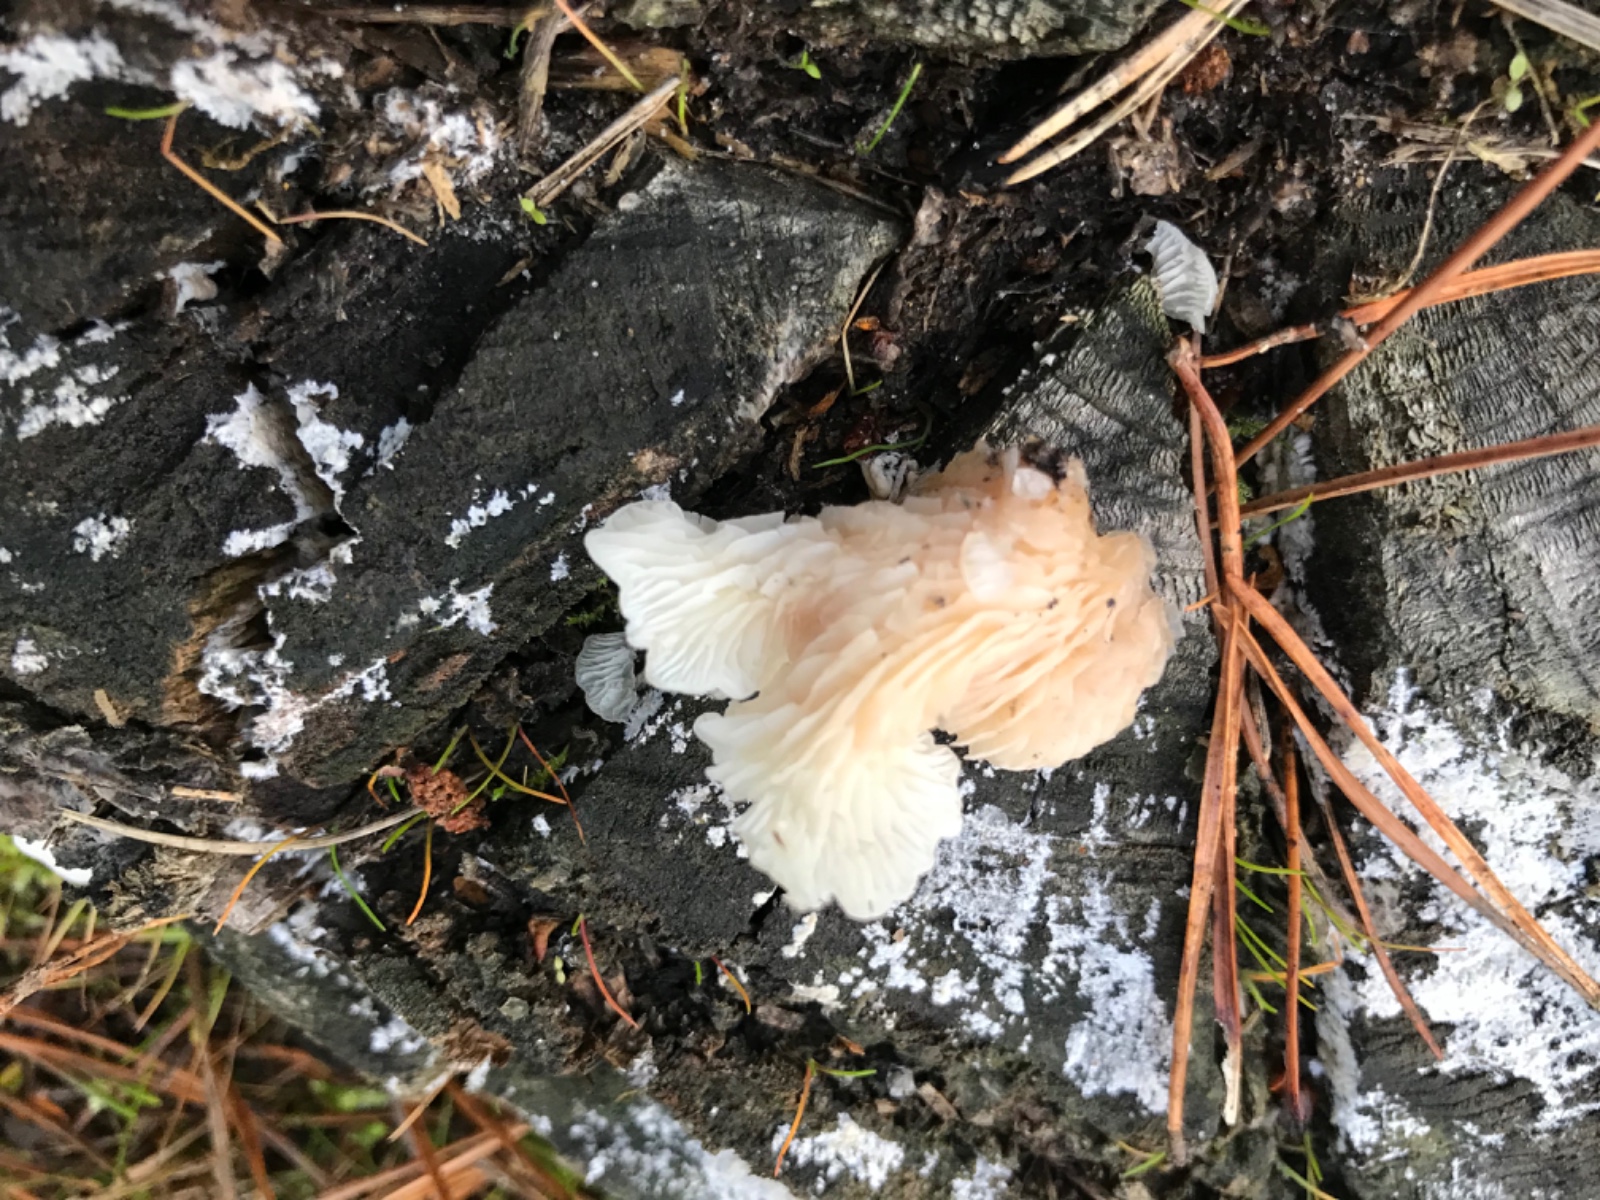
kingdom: Fungi
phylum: Basidiomycota
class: Agaricomycetes
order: Agaricales
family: Entolomataceae
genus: Clitopilus
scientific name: Clitopilus baronii
